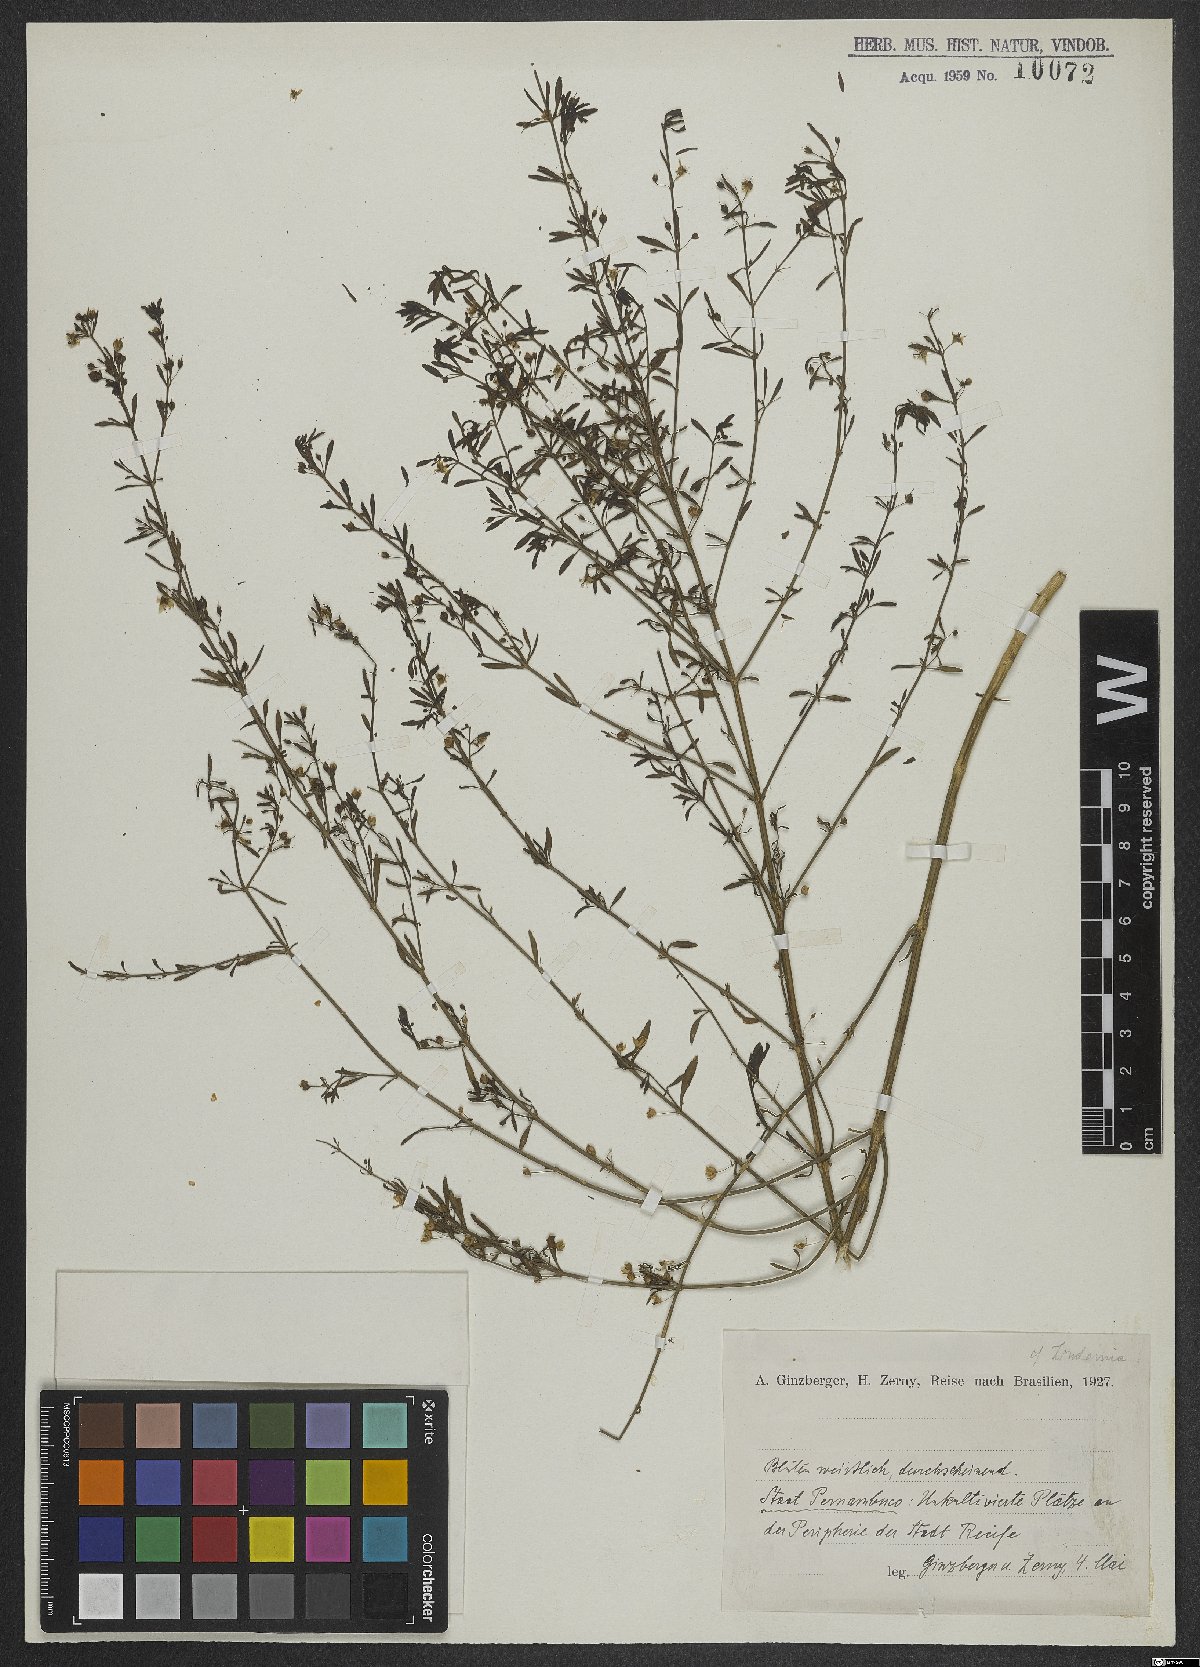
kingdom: Plantae
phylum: Tracheophyta
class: Magnoliopsida
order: Lamiales
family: Linderniaceae
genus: Lindernia
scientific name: Lindernia
